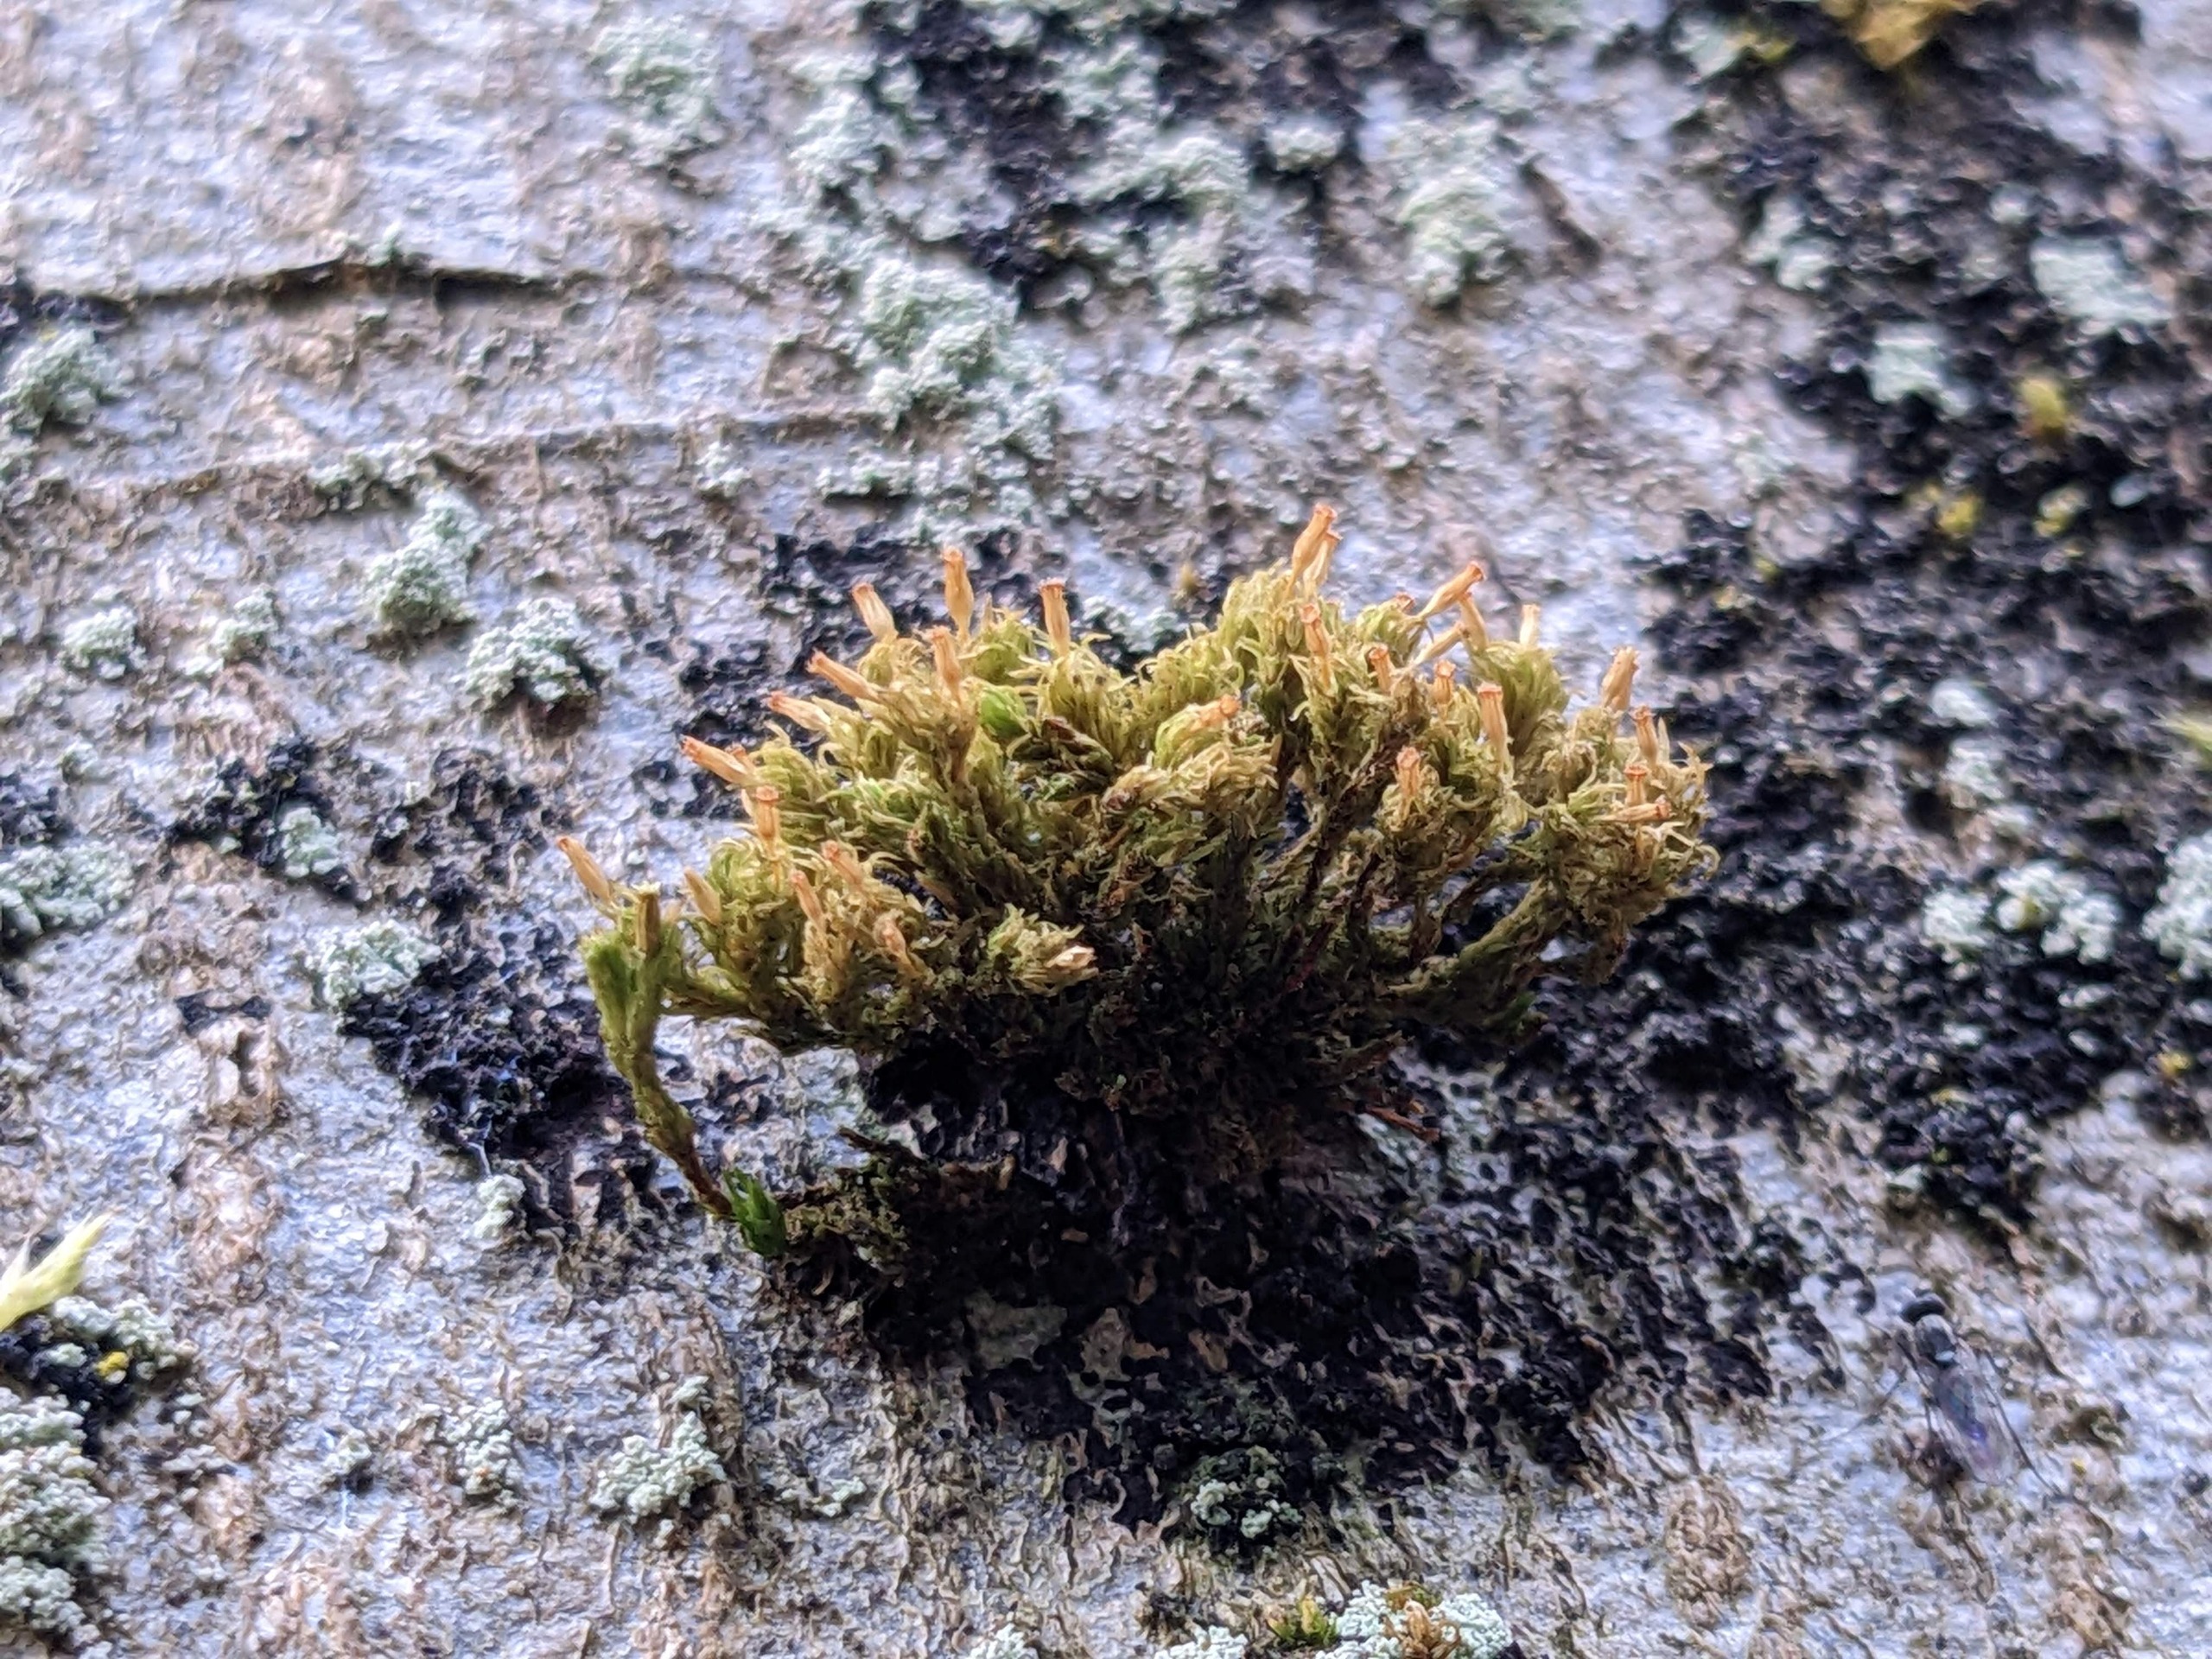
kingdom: Plantae
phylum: Bryophyta
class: Bryopsida
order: Orthotrichales
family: Orthotrichaceae
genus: Orthotrichum
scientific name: Orthotrichum pulchellum
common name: Smuk furehætte
